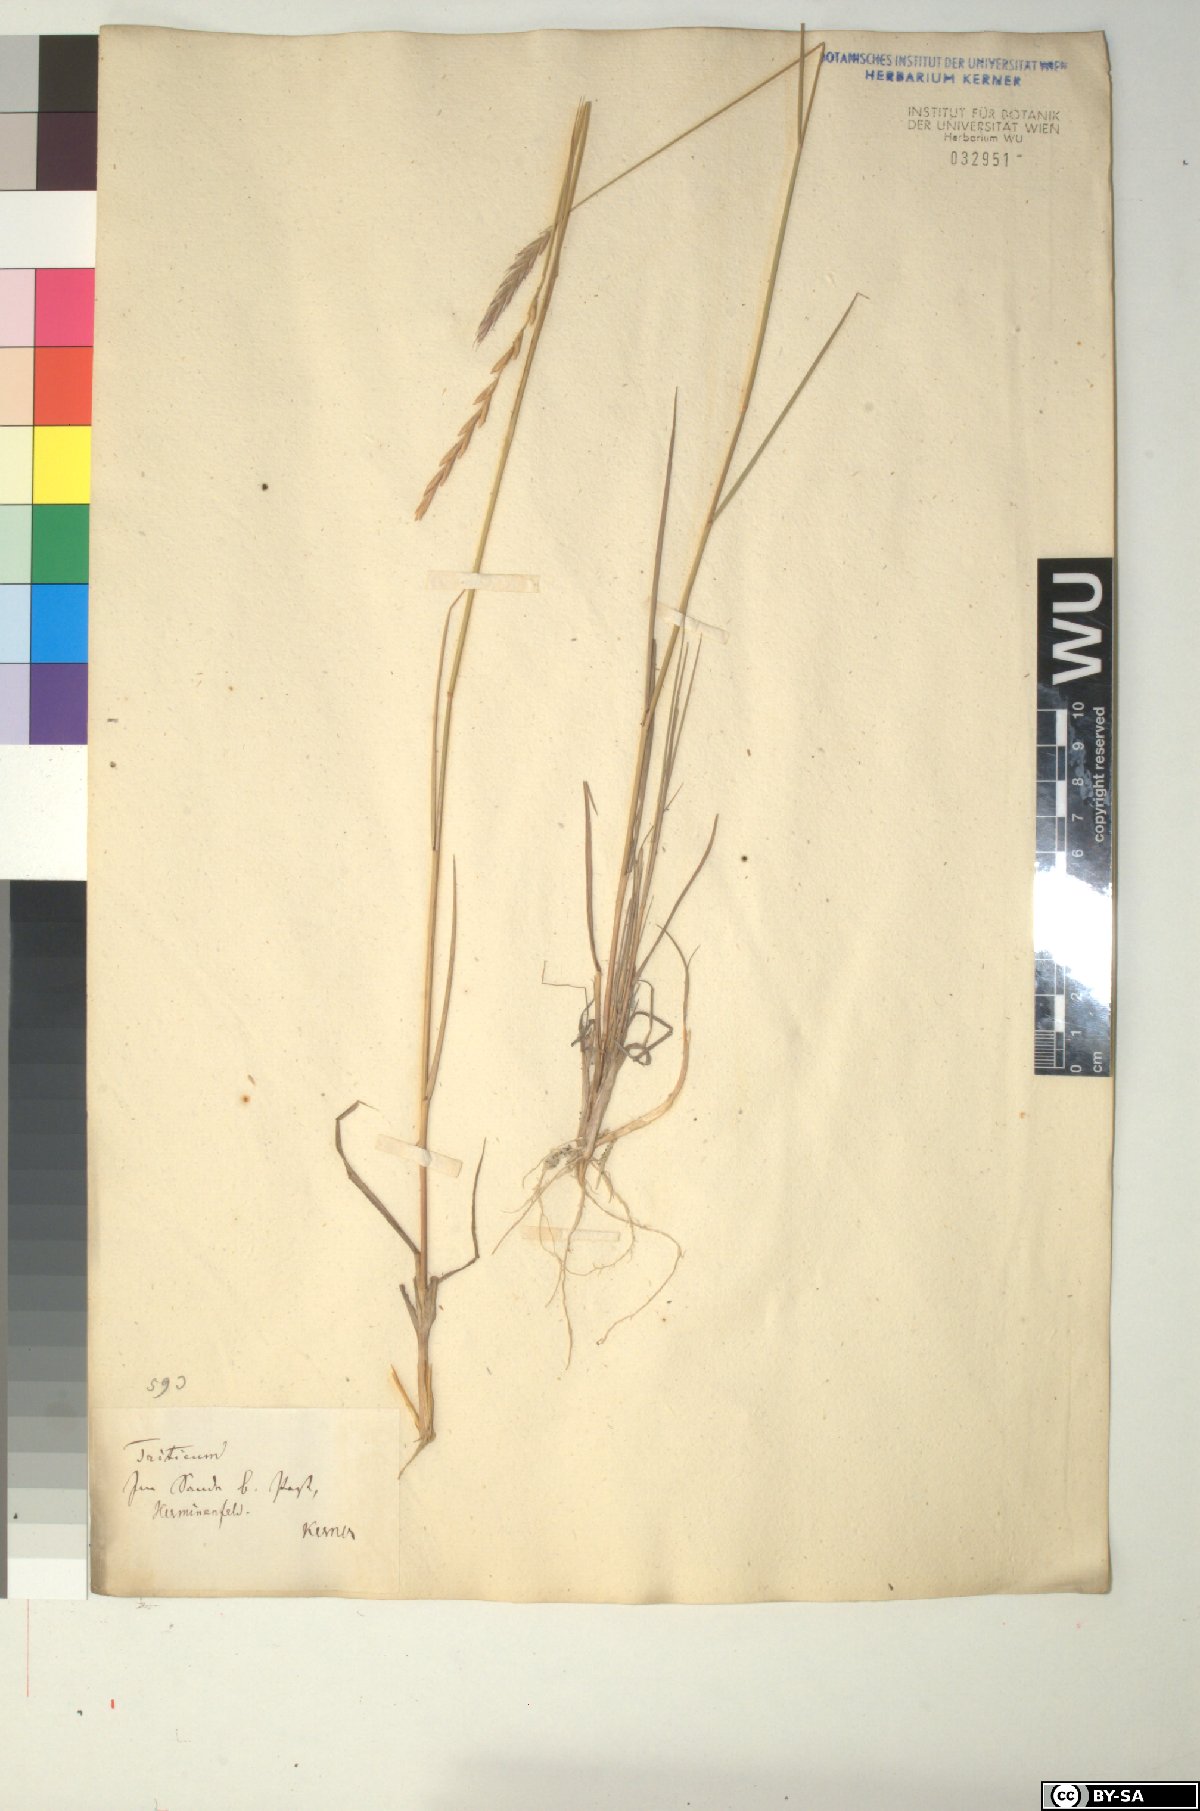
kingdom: Plantae
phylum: Tracheophyta
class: Liliopsida
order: Poales
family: Poaceae
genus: Elymus
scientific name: Elymus repens
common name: Quackgrass
